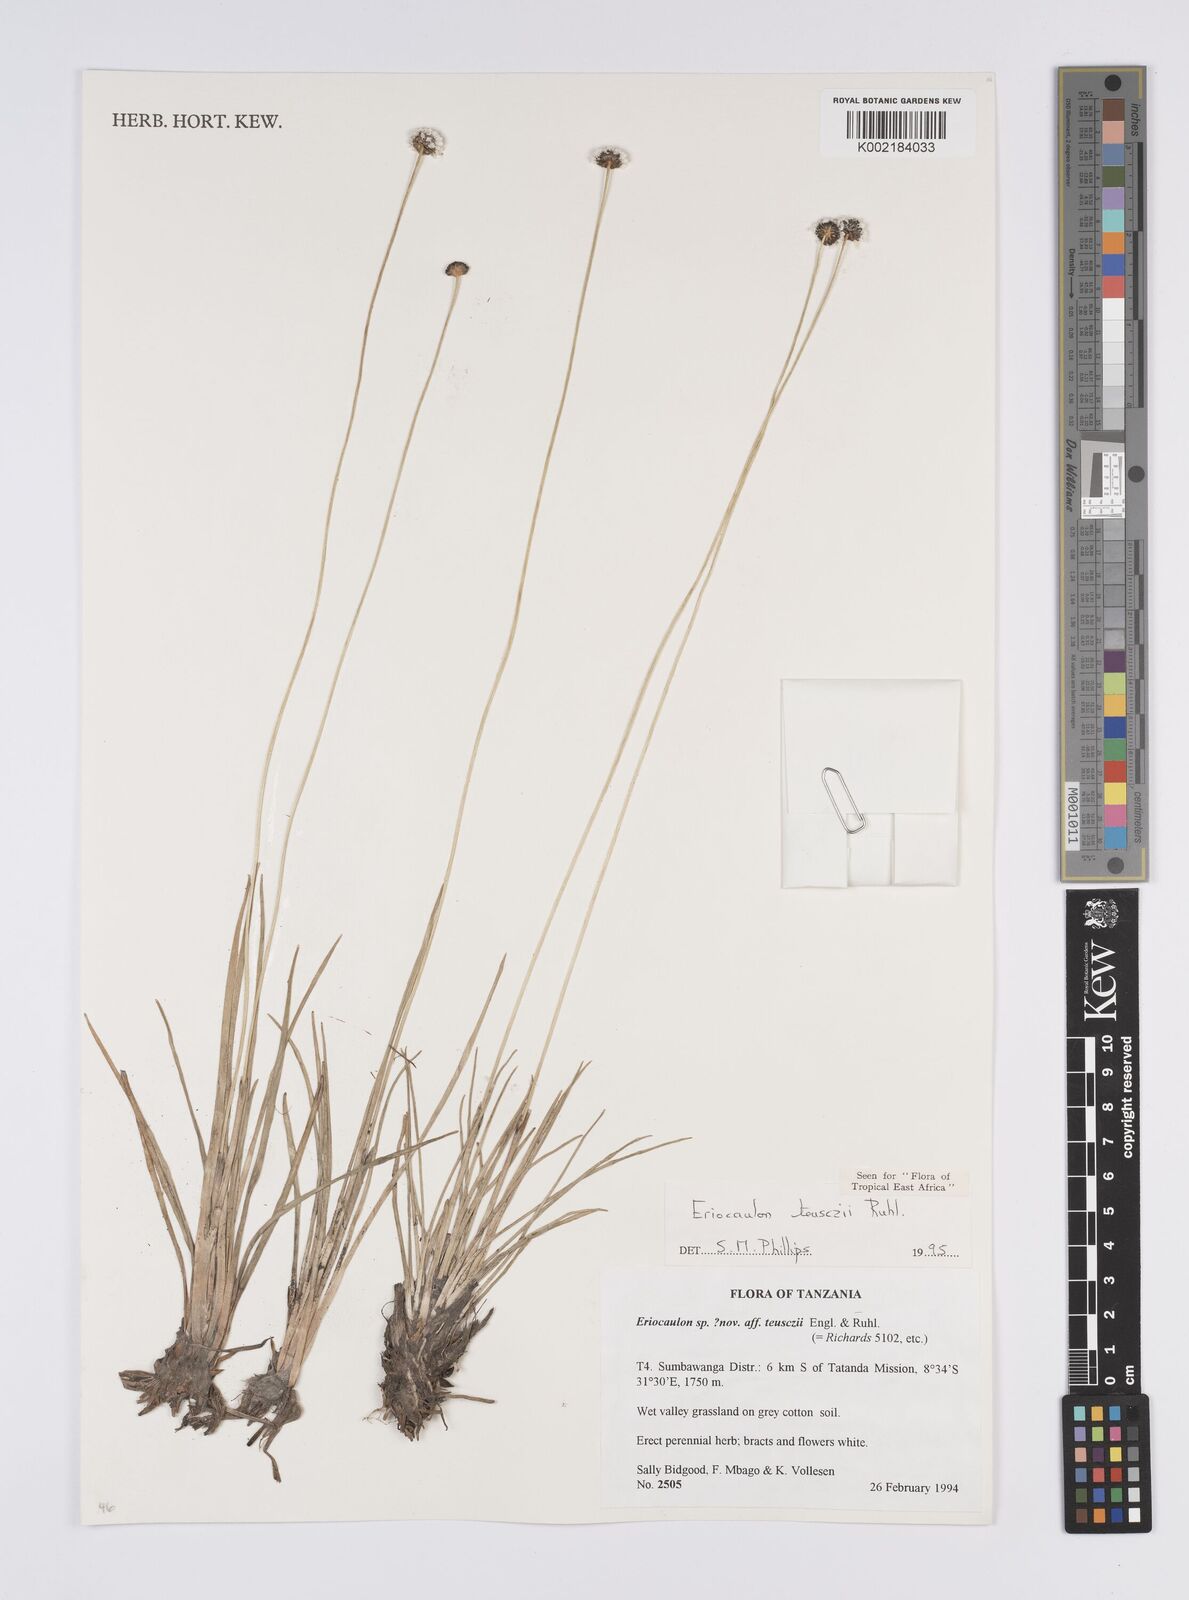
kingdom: Plantae
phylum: Tracheophyta
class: Liliopsida
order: Poales
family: Eriocaulaceae
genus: Eriocaulon
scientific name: Eriocaulon teusczii
